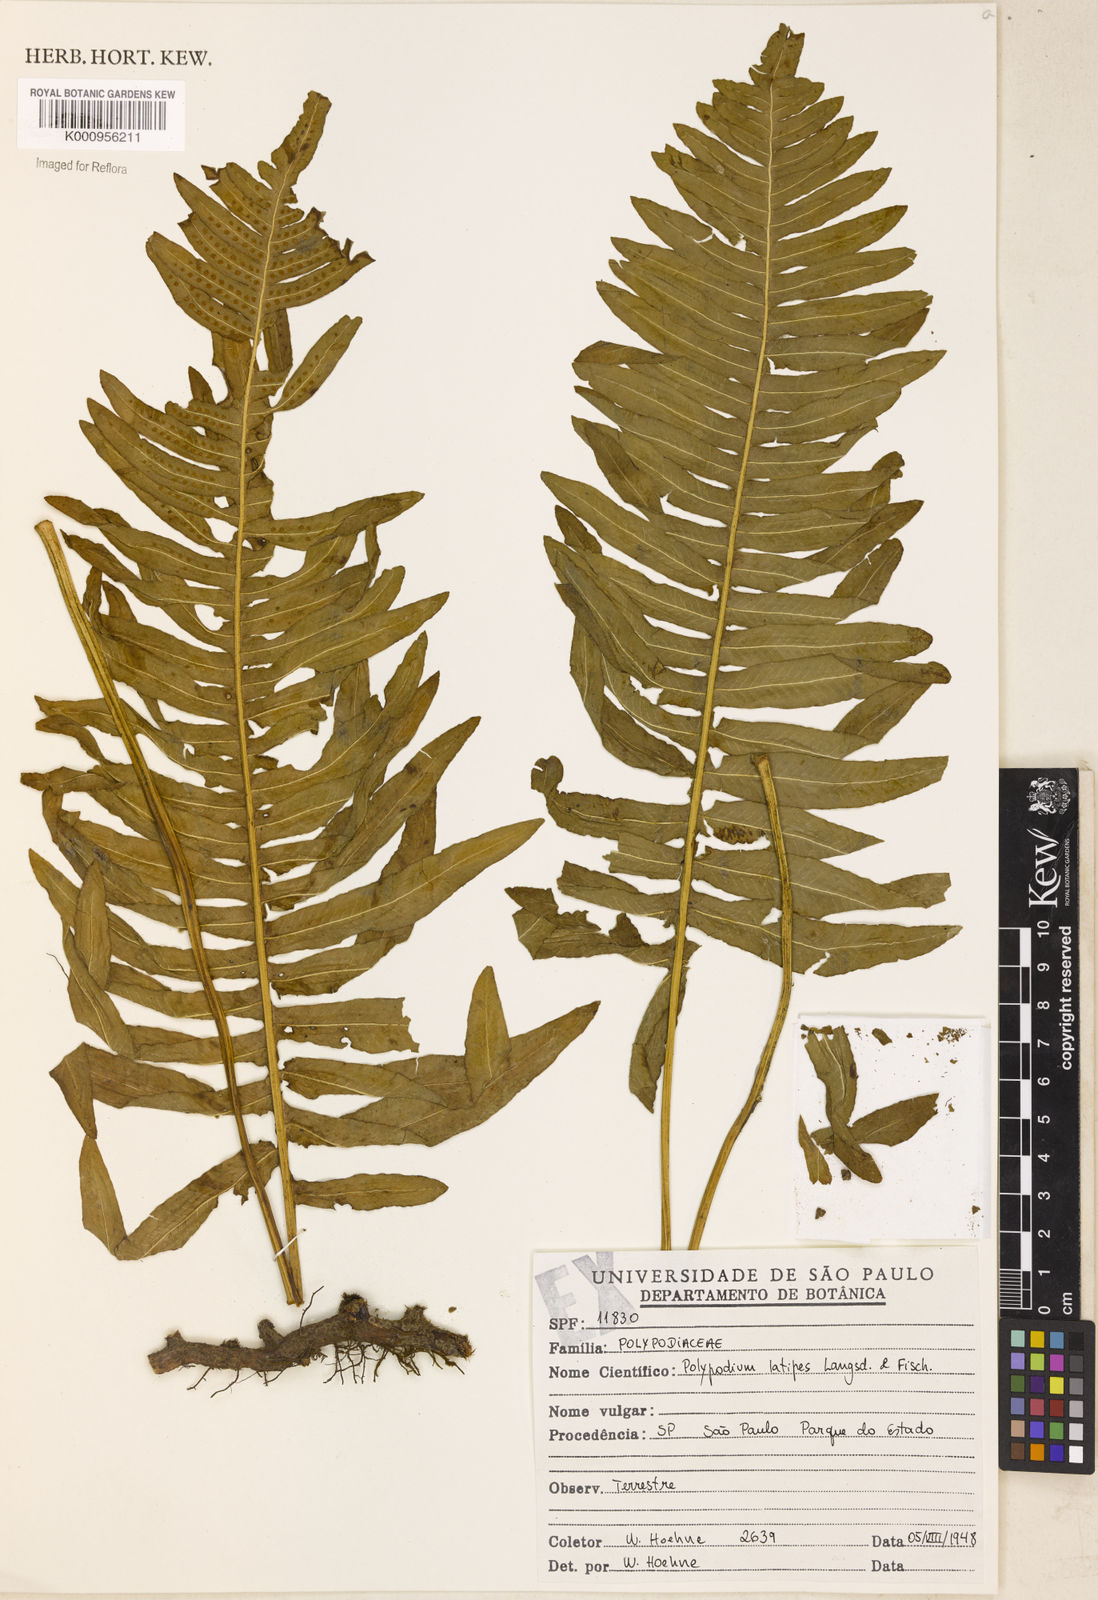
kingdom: Plantae
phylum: Tracheophyta
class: Polypodiopsida
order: Polypodiales
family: Polypodiaceae
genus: Serpocaulon
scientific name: Serpocaulon latipes
